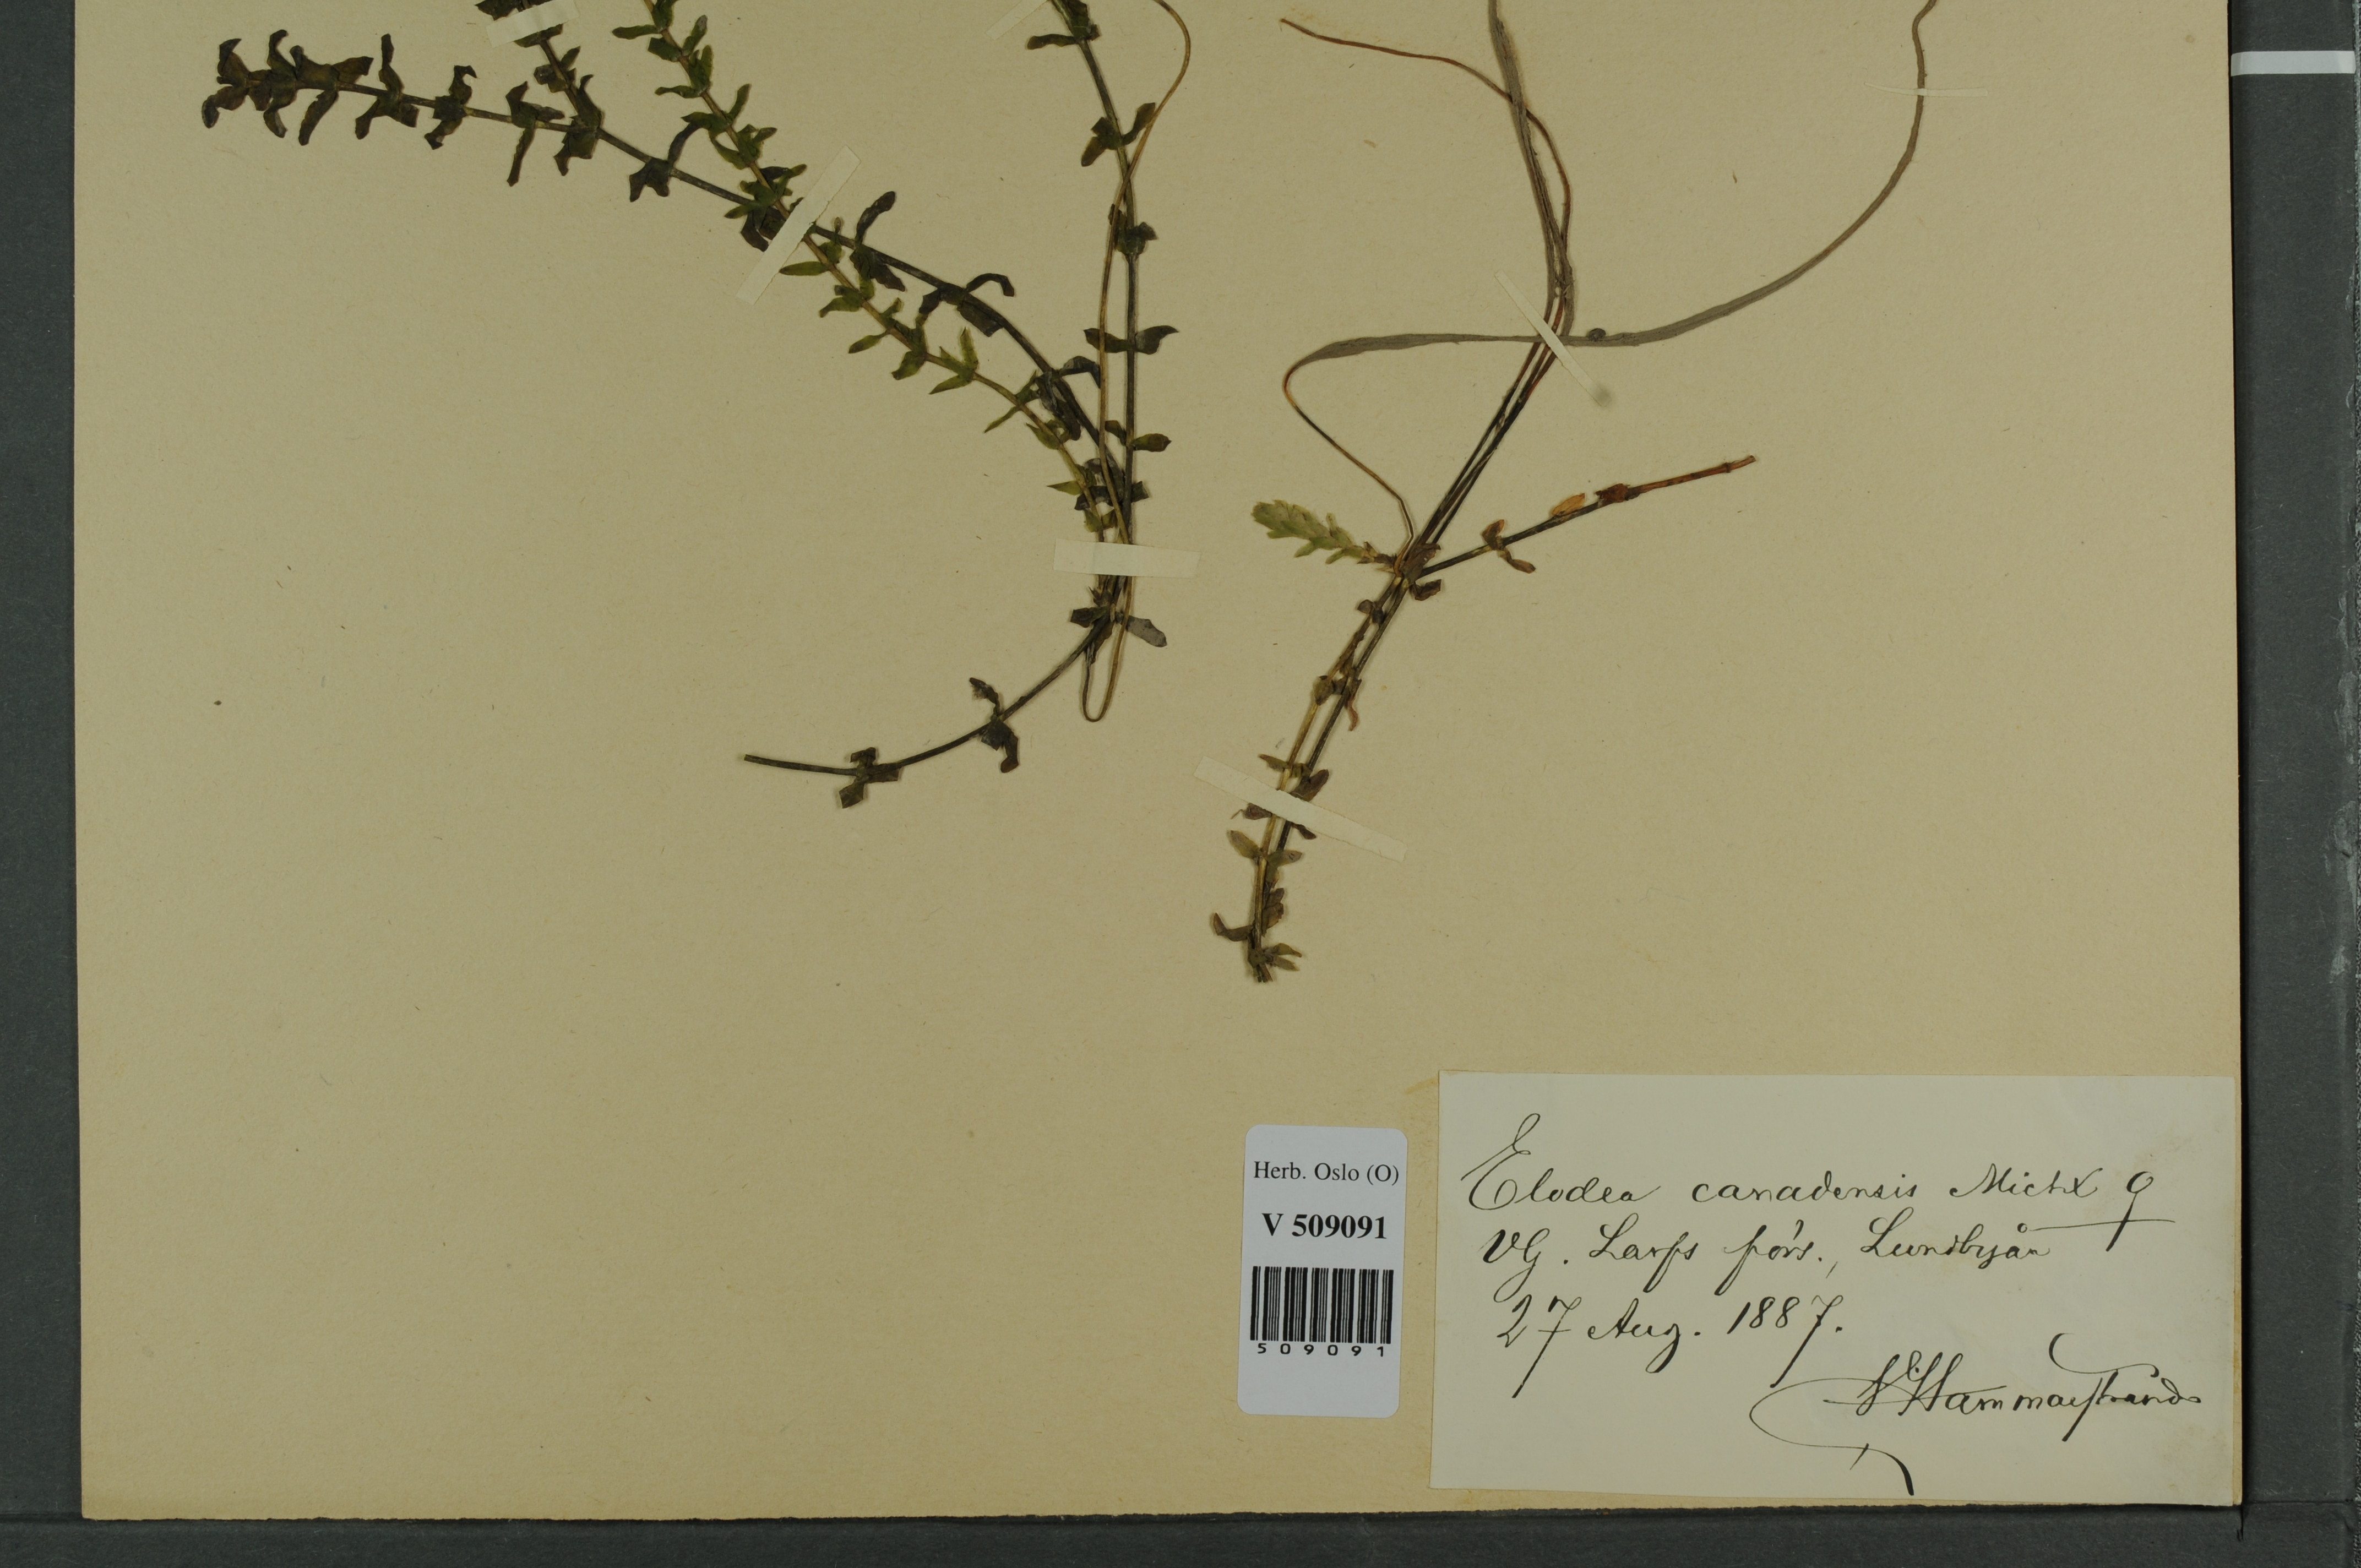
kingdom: Plantae
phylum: Tracheophyta
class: Liliopsida
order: Alismatales
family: Hydrocharitaceae
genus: Elodea
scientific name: Elodea canadensis
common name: Canadian waterweed
